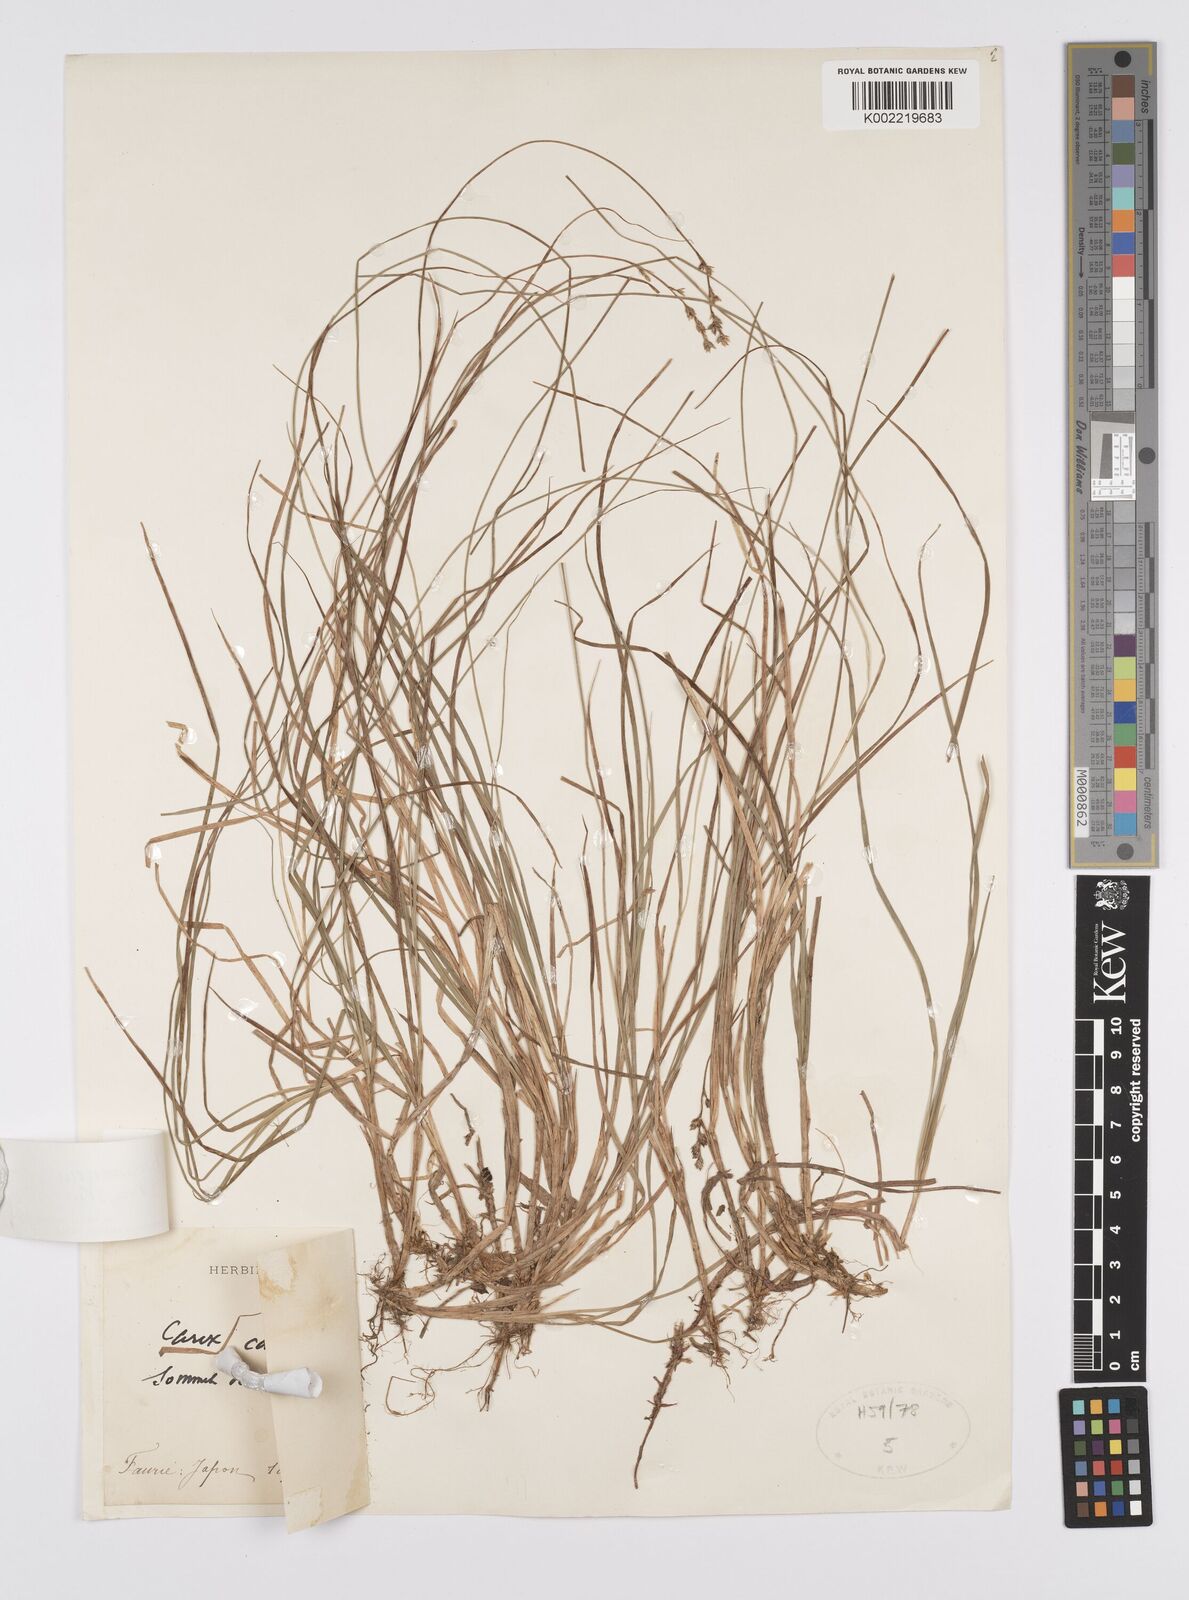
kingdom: Plantae
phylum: Tracheophyta
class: Liliopsida
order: Poales
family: Cyperaceae
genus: Carex
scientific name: Carex brunnescens
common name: Brown sedge
